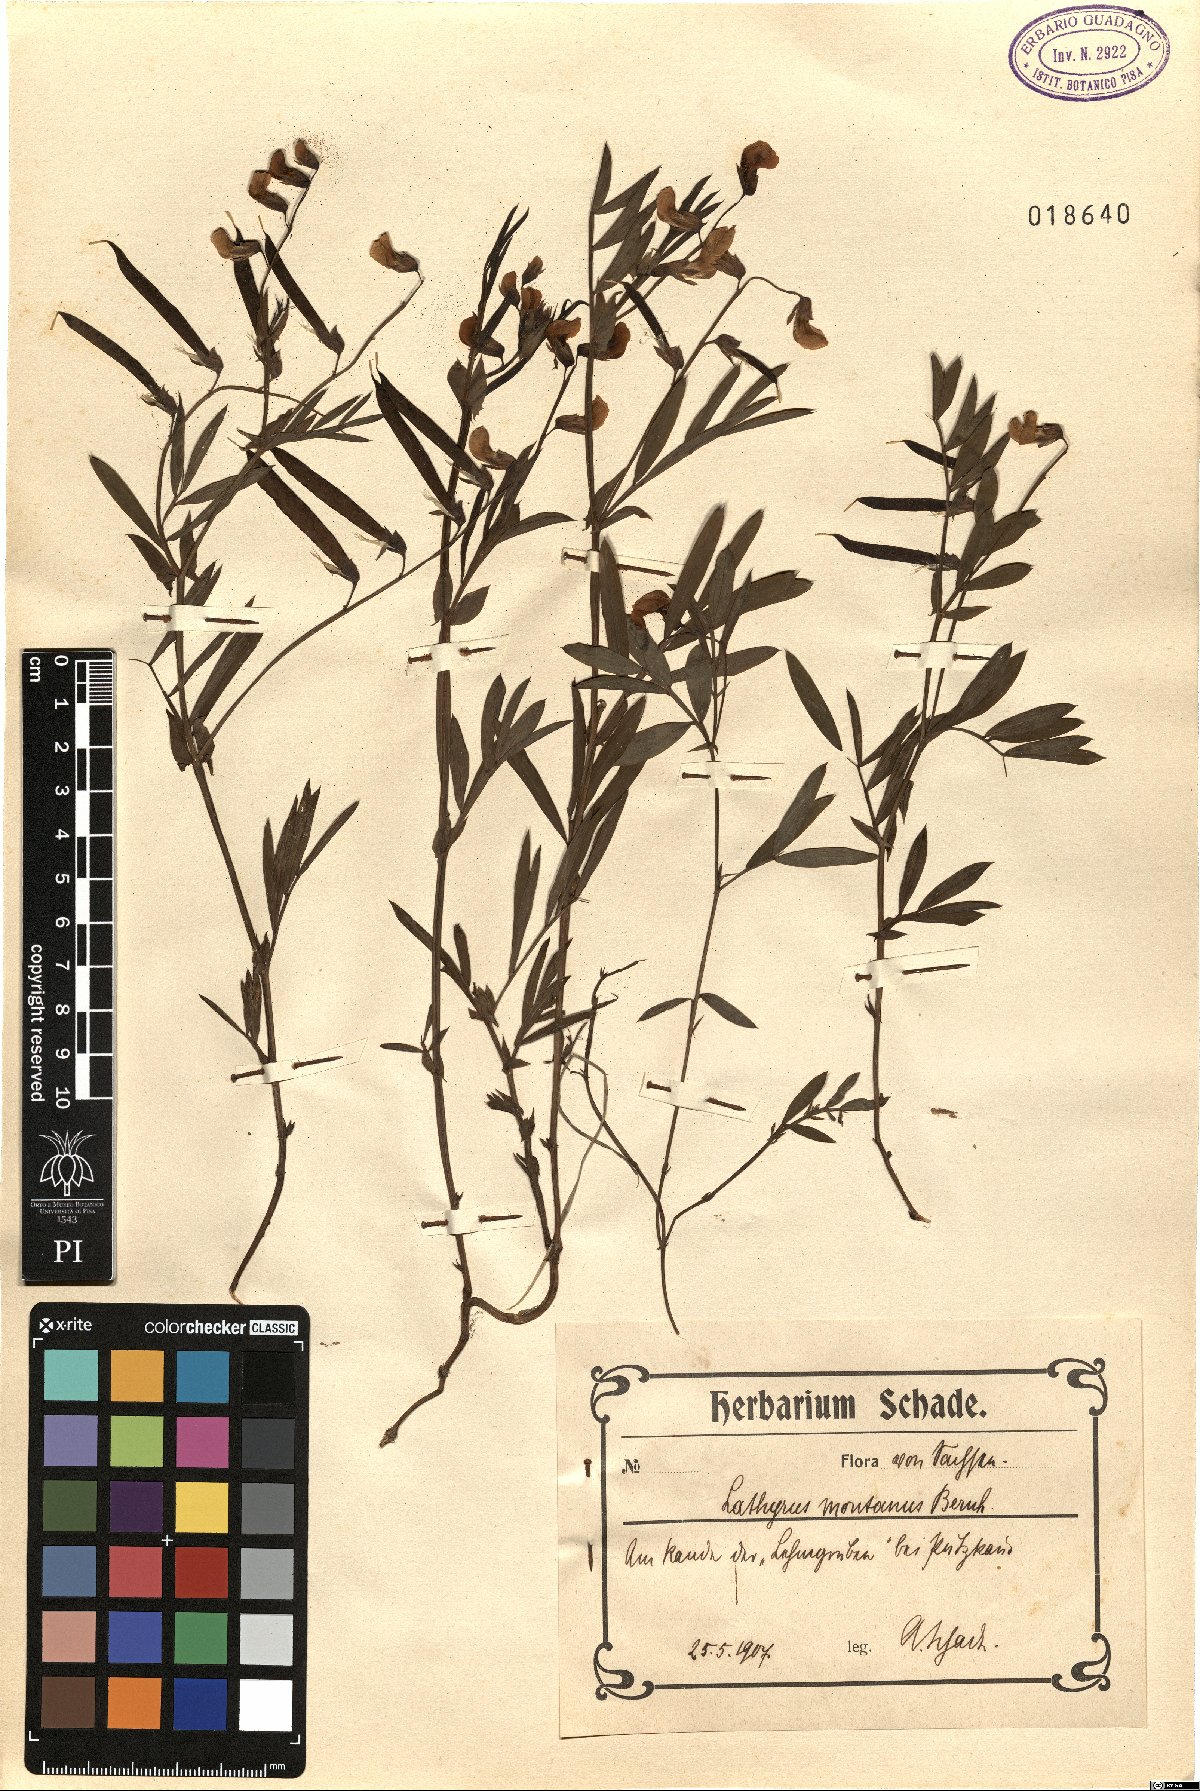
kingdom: Plantae
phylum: Tracheophyta
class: Magnoliopsida
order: Fabales
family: Fabaceae
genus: Lathyrus
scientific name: Lathyrus linifolius
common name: Bitter-vetch
